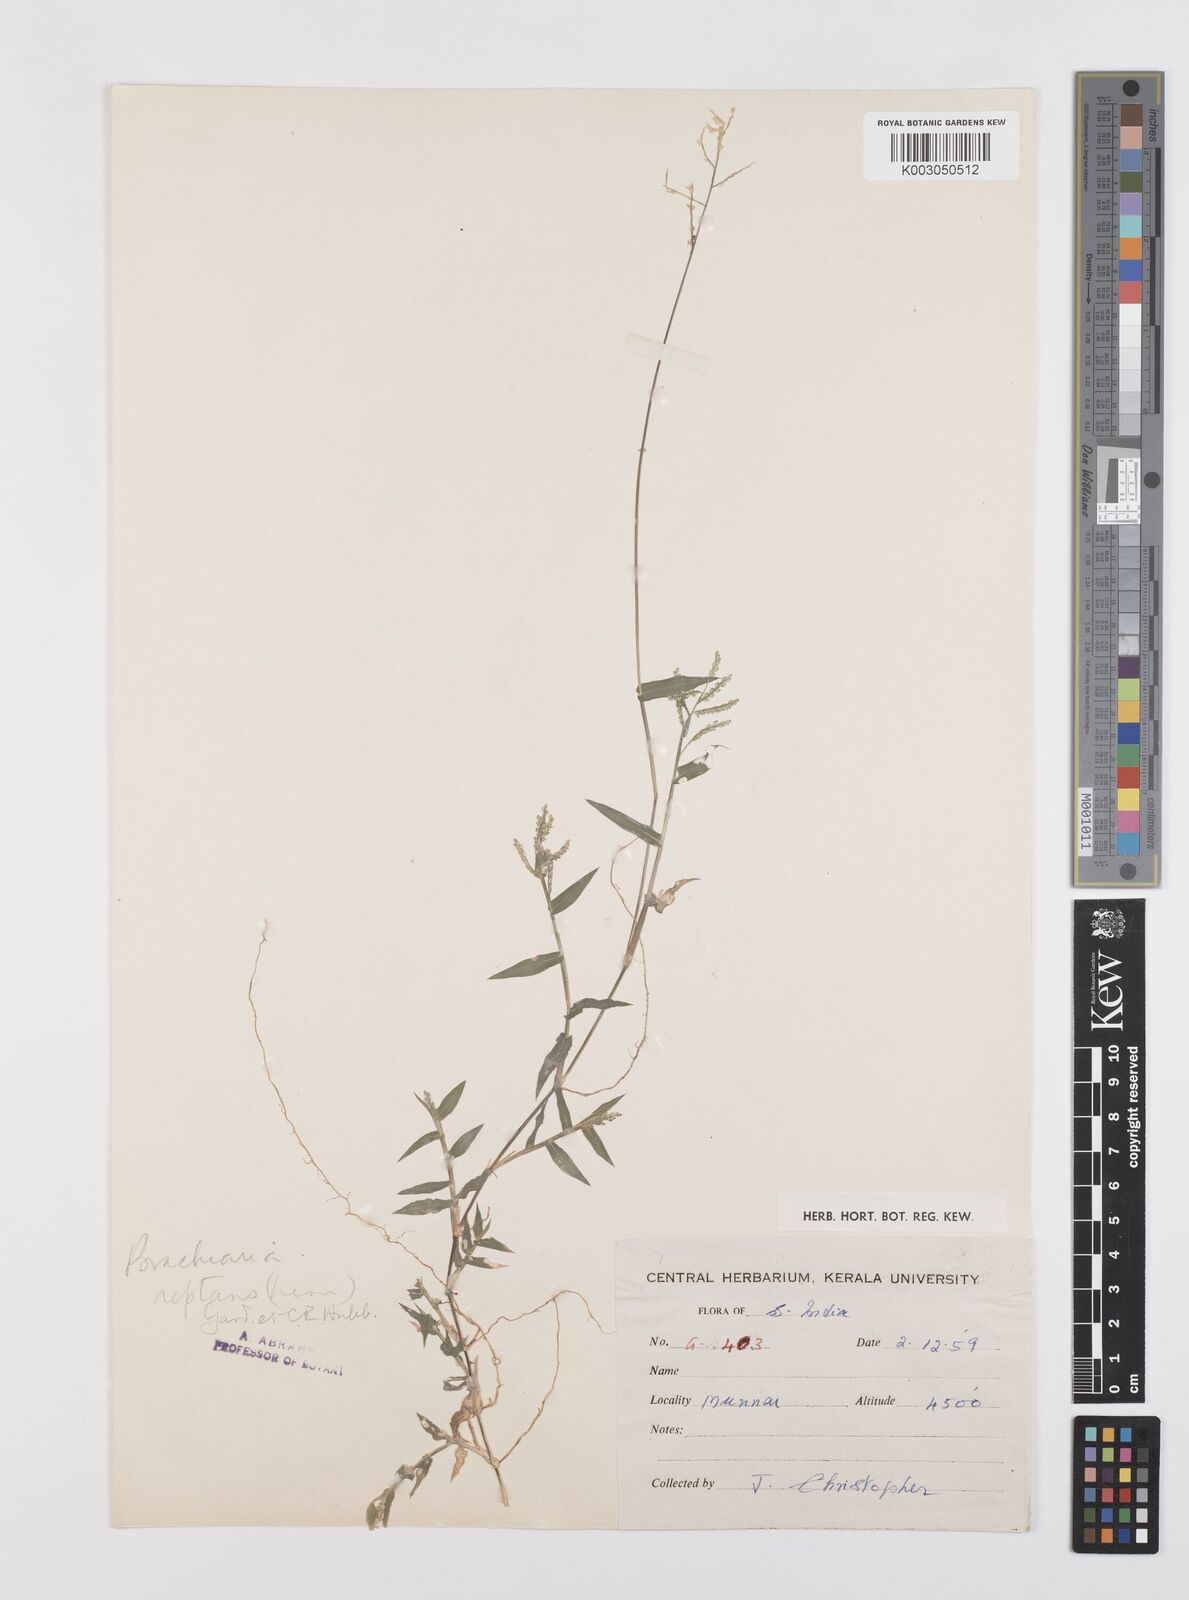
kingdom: Plantae
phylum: Tracheophyta
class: Liliopsida
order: Poales
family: Poaceae
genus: Urochloa
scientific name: Urochloa reptans
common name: Sprawling signalgrass
